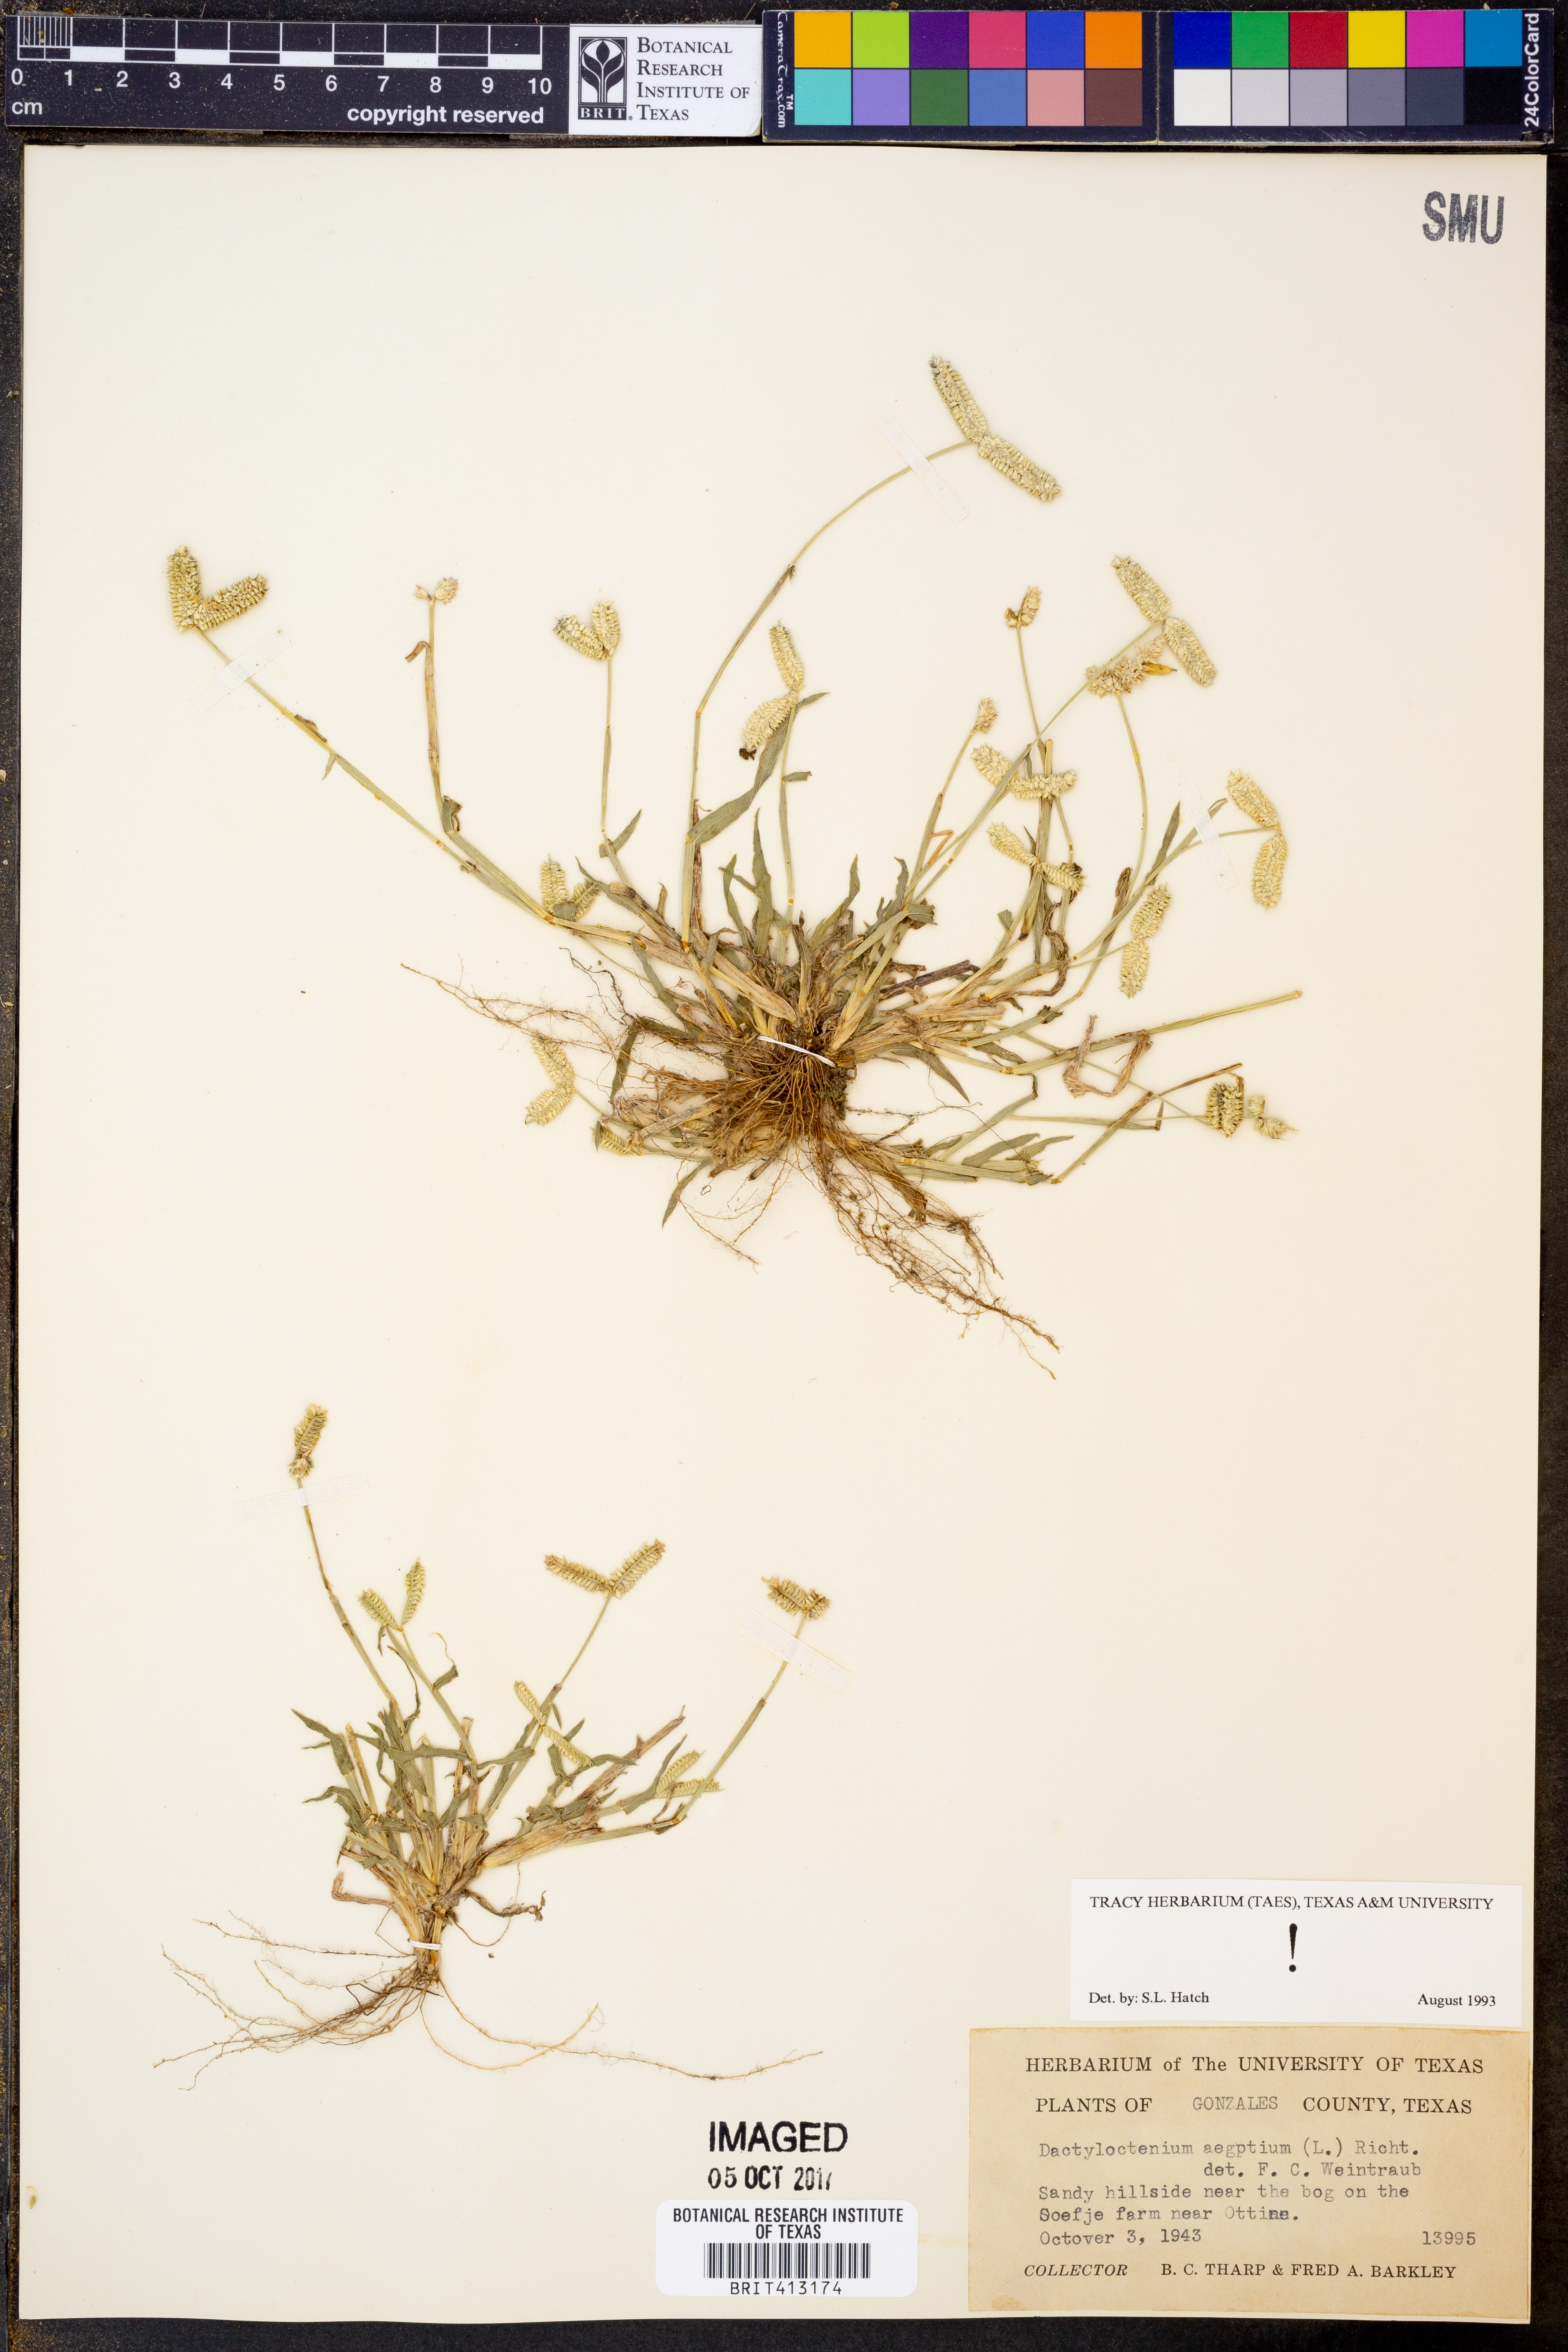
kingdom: Plantae
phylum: Tracheophyta
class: Liliopsida
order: Poales
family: Poaceae
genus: Dactyloctenium
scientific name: Dactyloctenium aegyptium
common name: Egyptian grass
